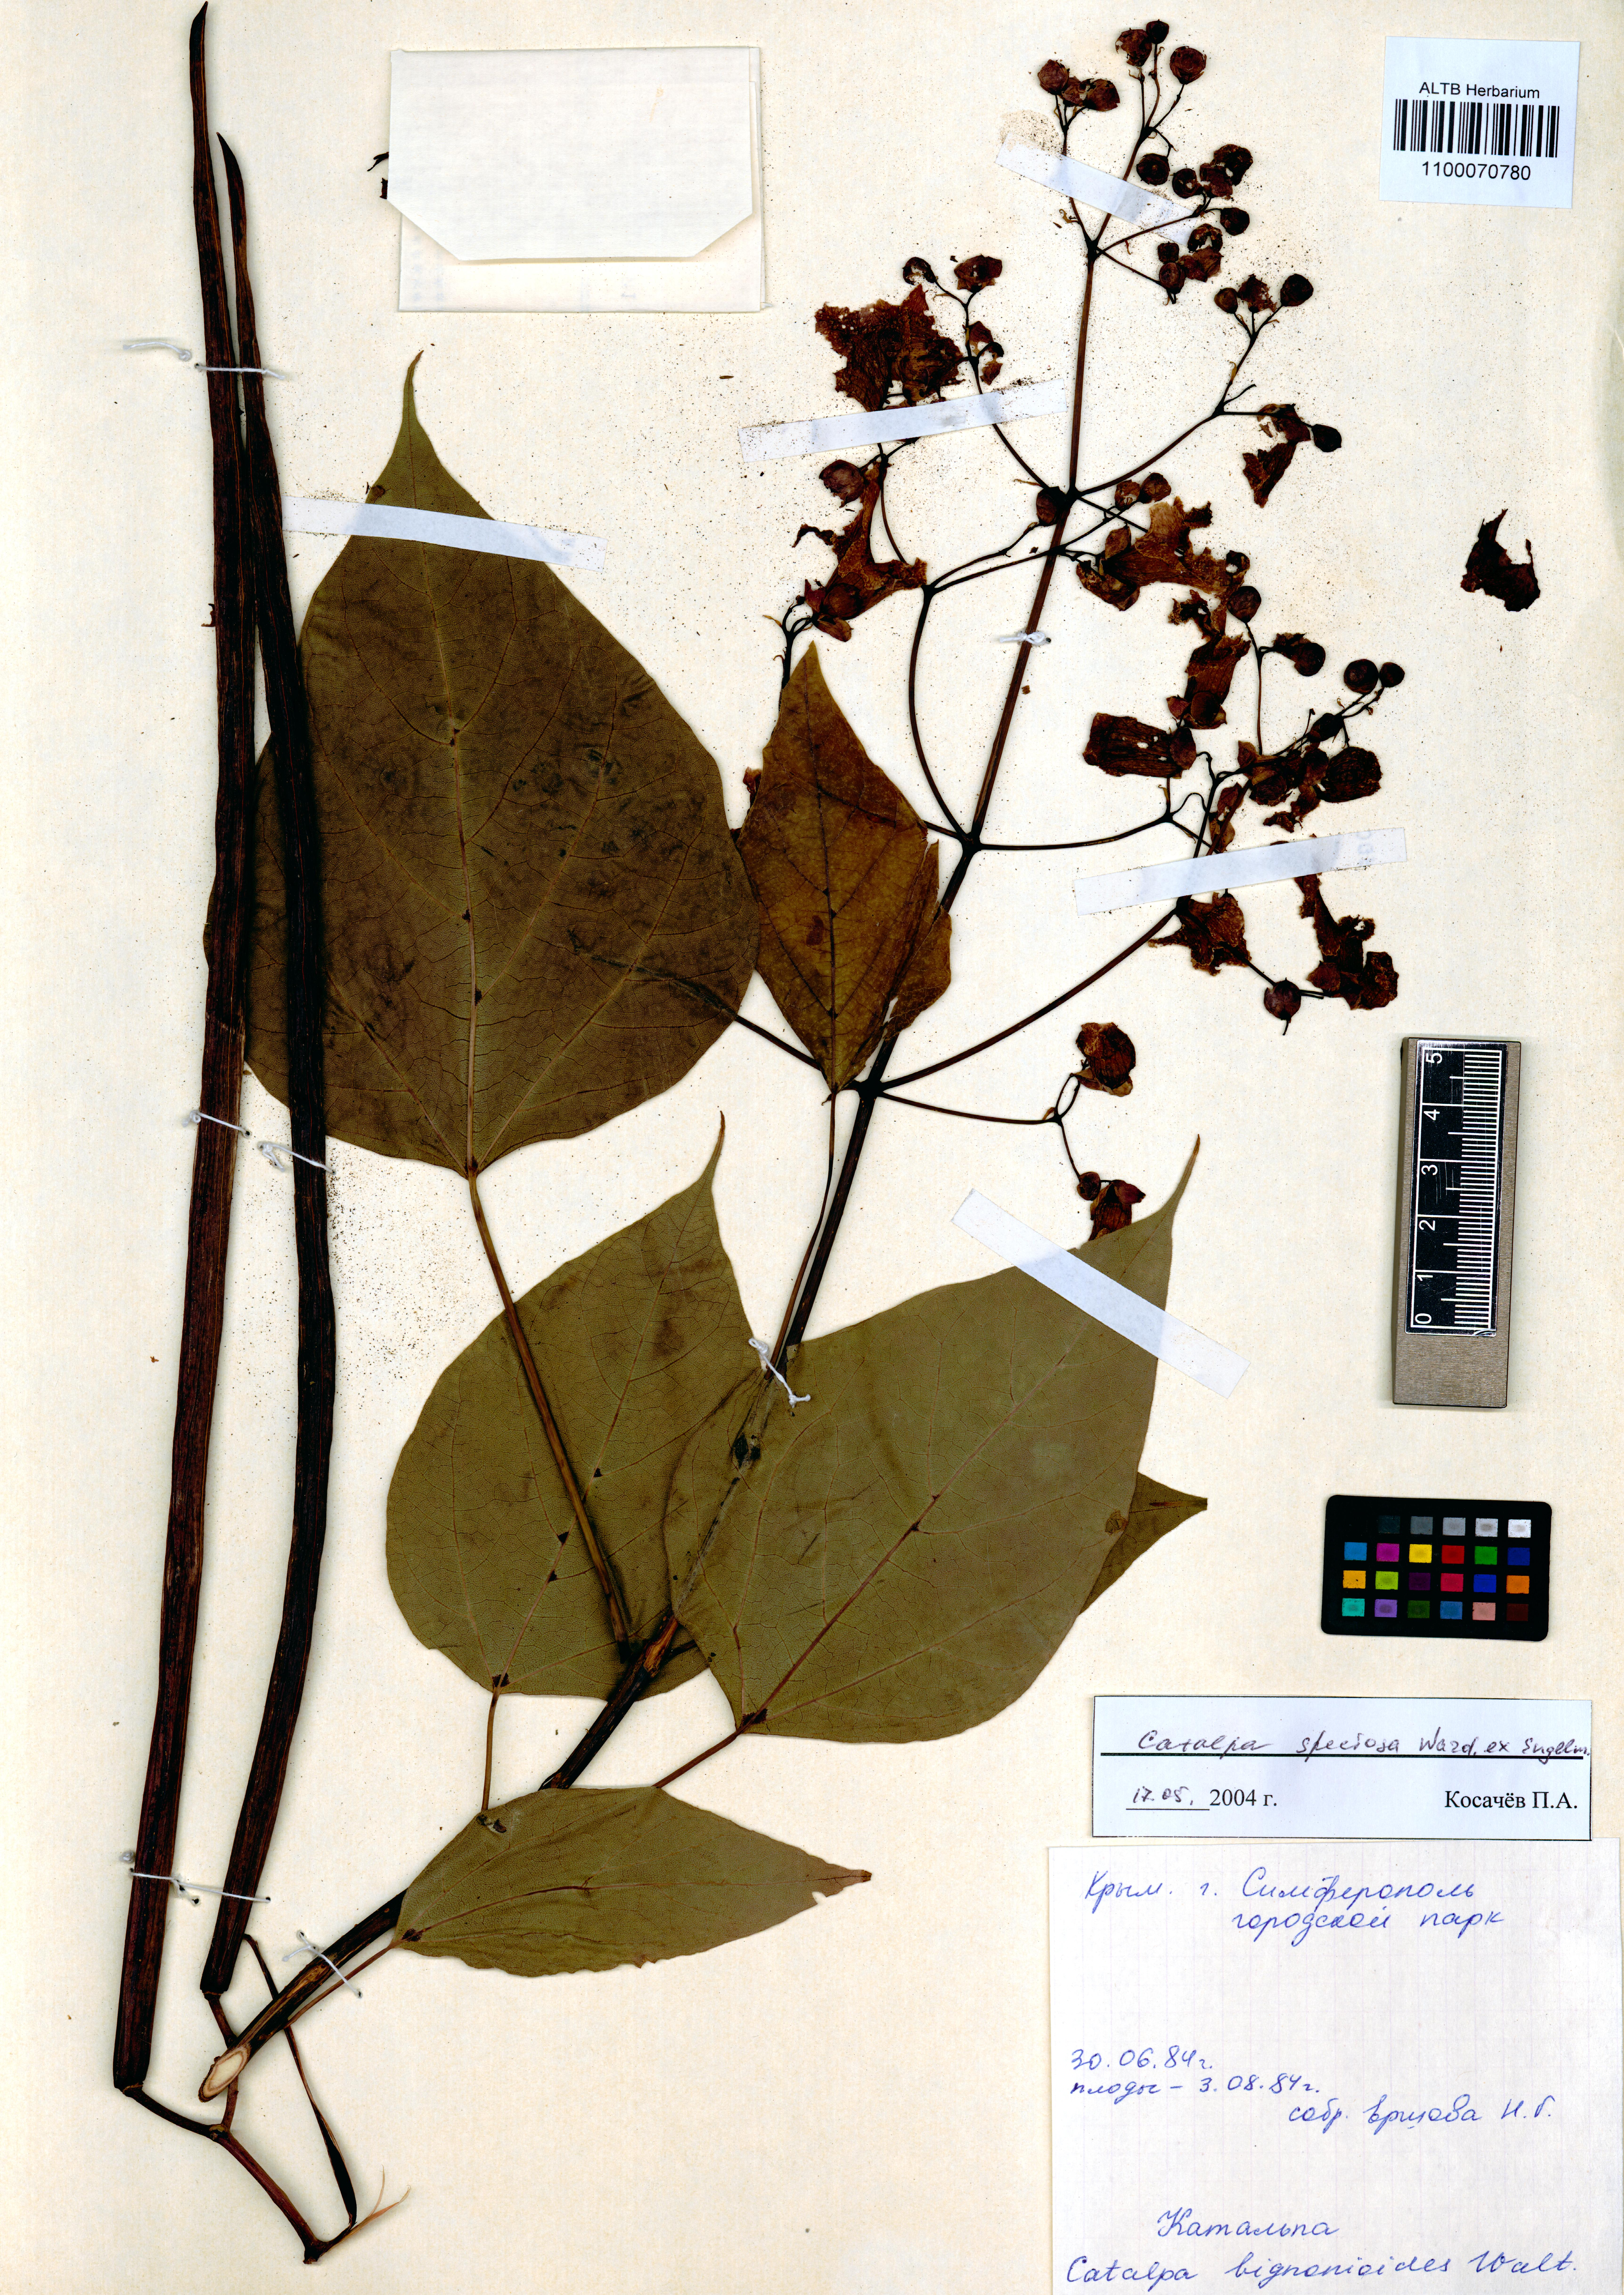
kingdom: Plantae
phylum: Tracheophyta
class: Magnoliopsida
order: Lamiales
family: Bignoniaceae
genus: Catalpa
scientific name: Catalpa speciosa
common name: Northern catalpa
